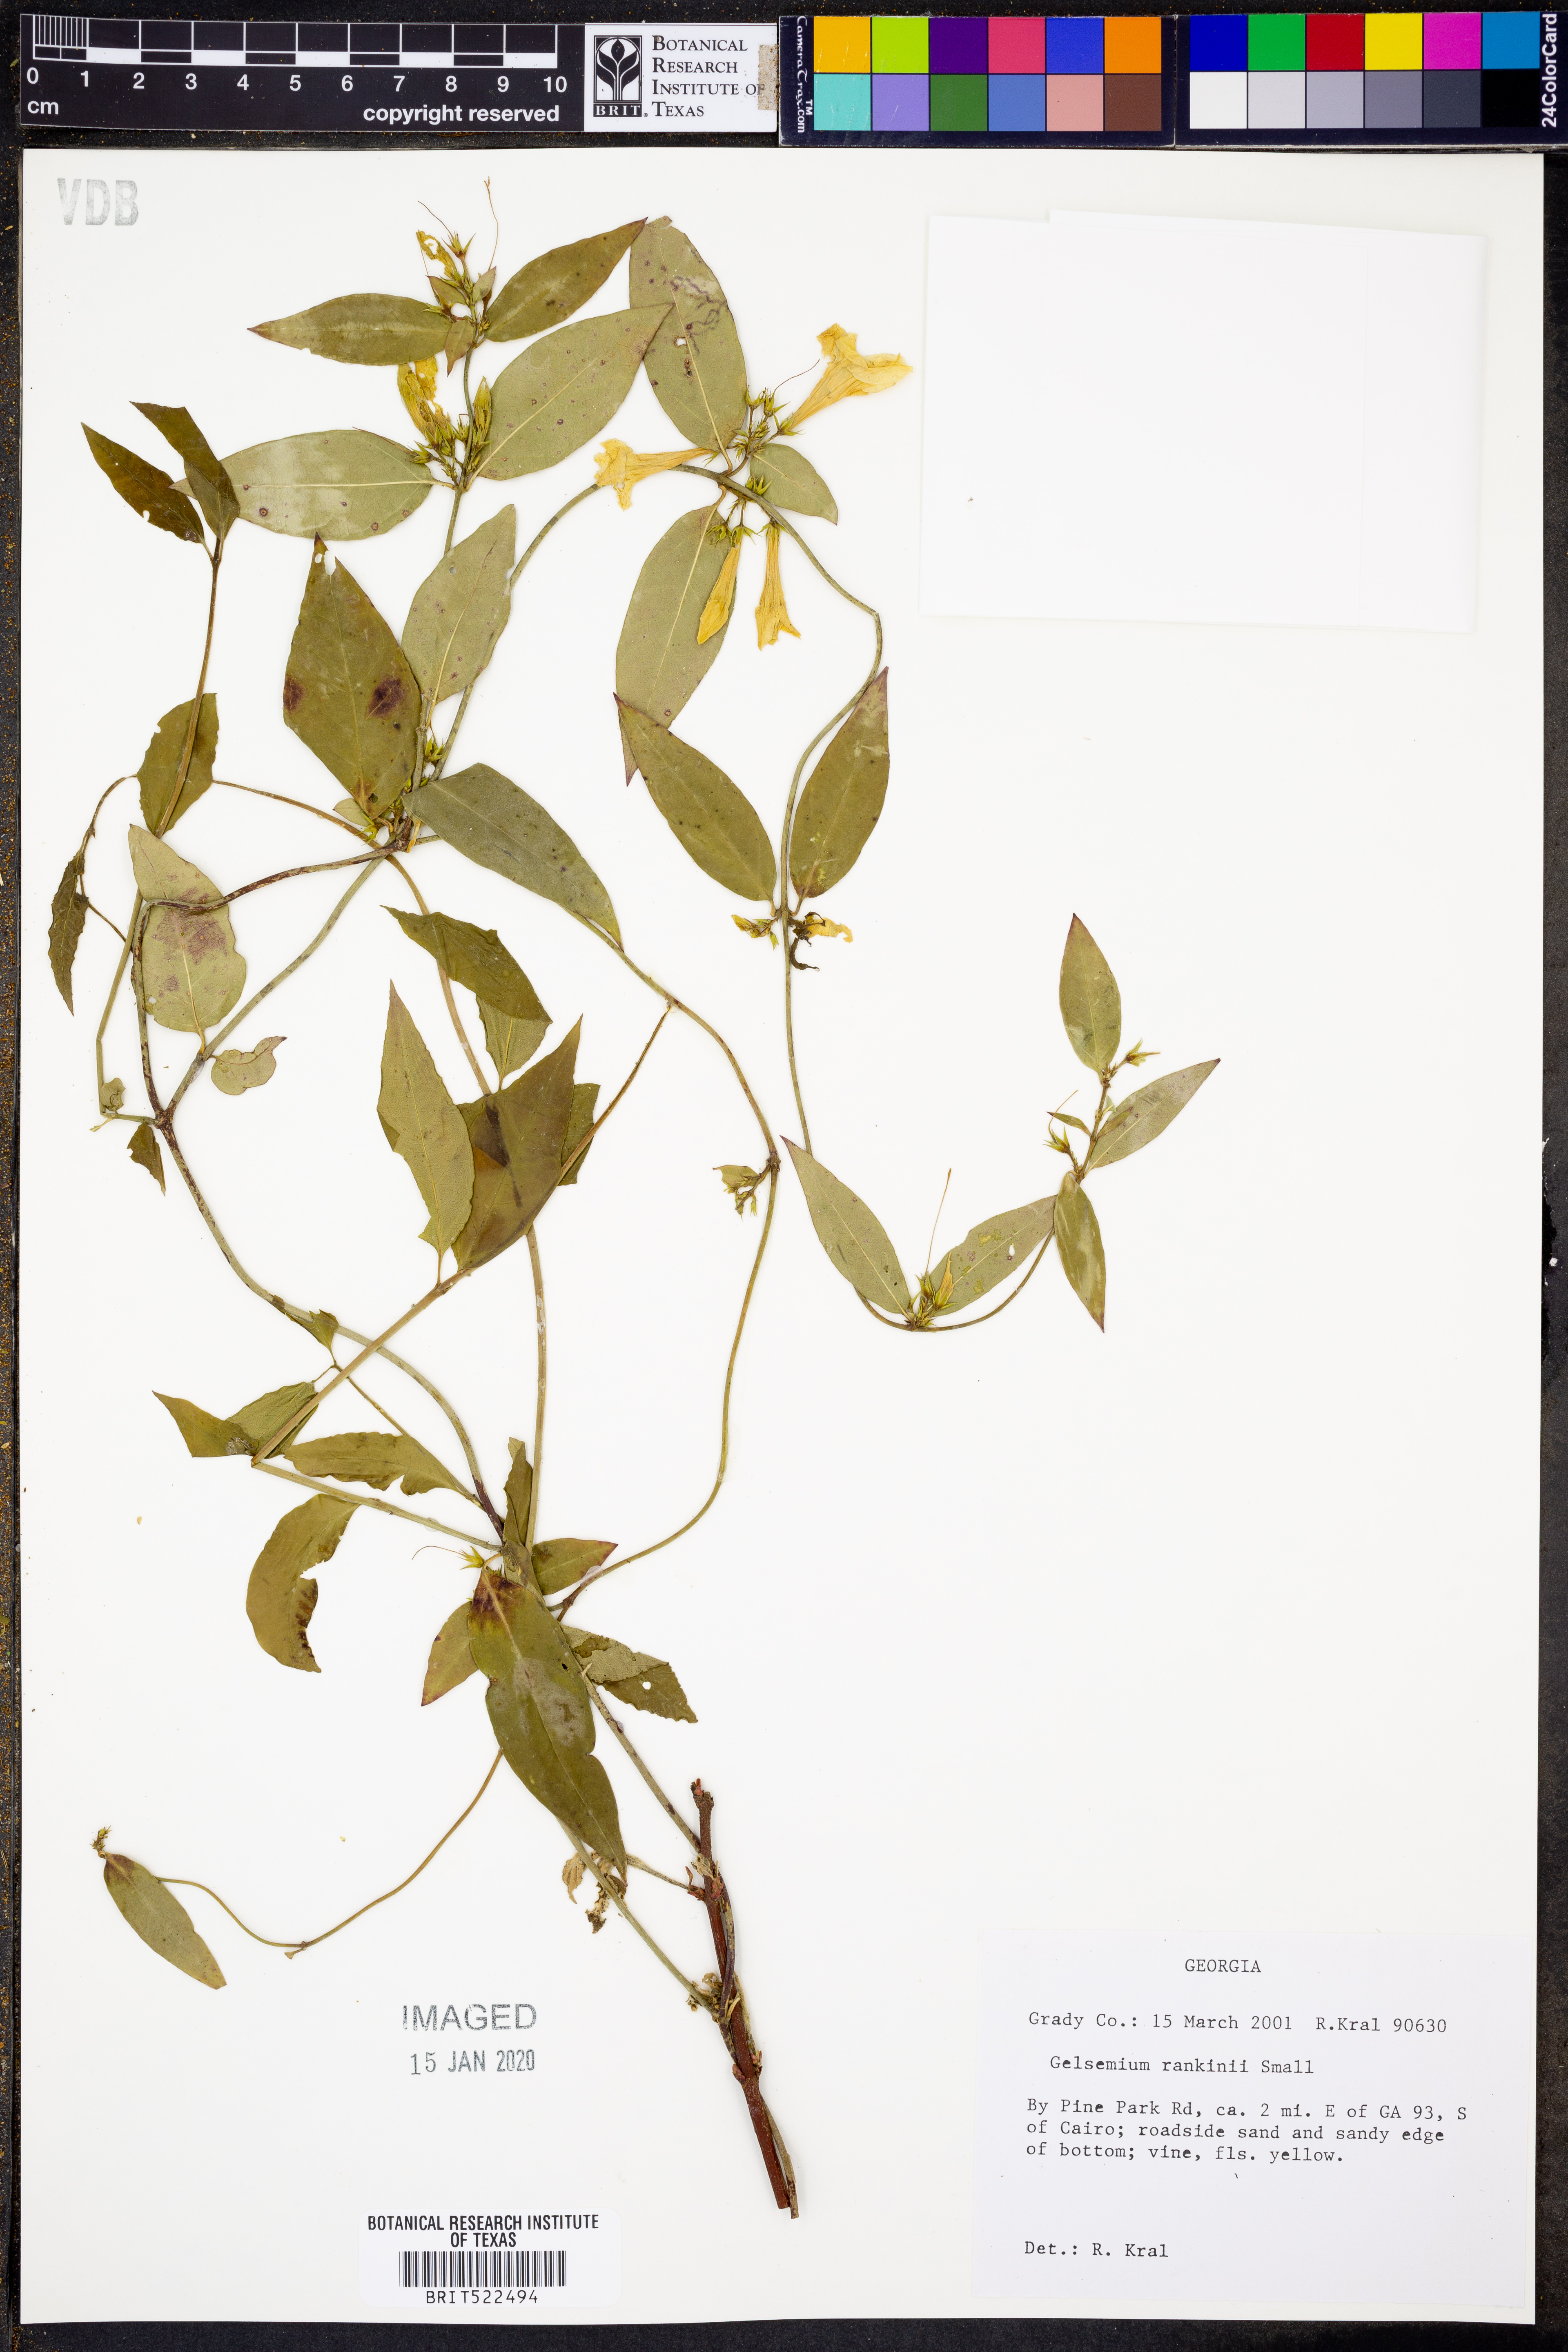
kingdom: Plantae
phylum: Tracheophyta
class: Magnoliopsida
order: Gentianales
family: Gelsemiaceae
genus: Gelsemium
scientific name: Gelsemium rankinii
